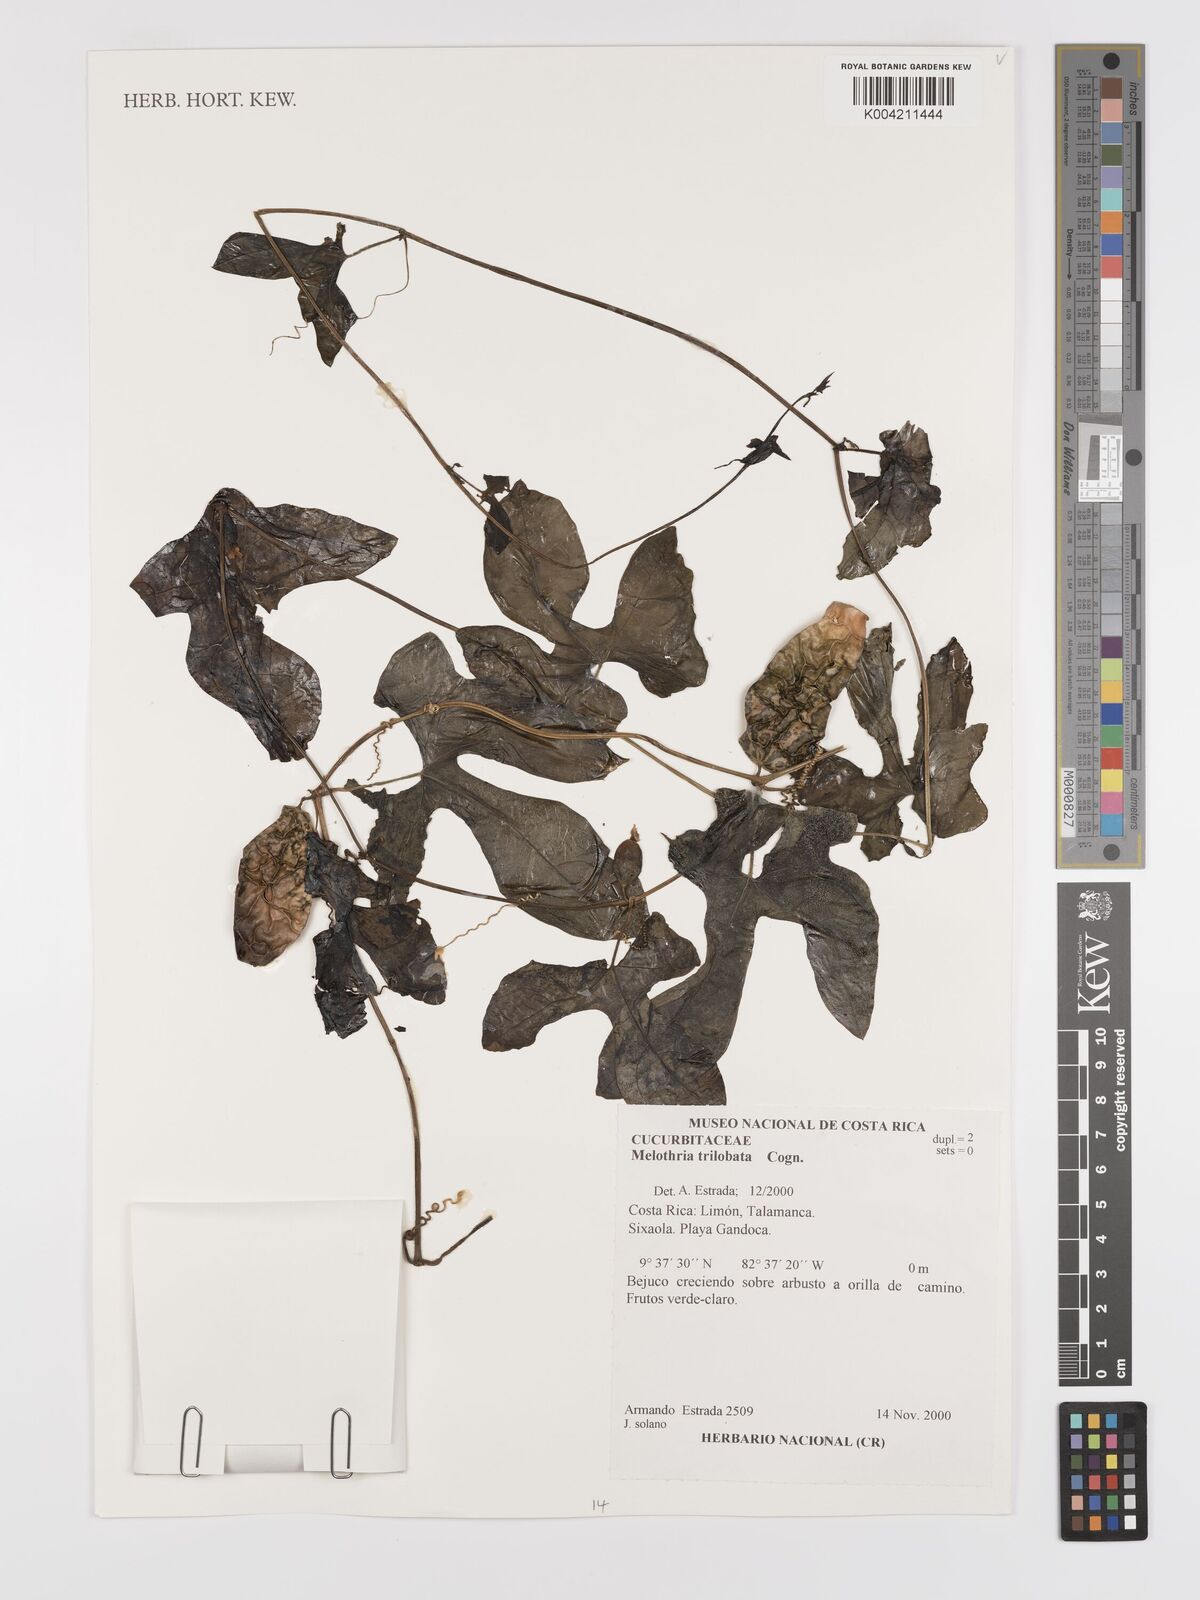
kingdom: Plantae
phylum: Tracheophyta
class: Magnoliopsida
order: Cucurbitales
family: Cucurbitaceae
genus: Melothria
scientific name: Melothria trilobata
